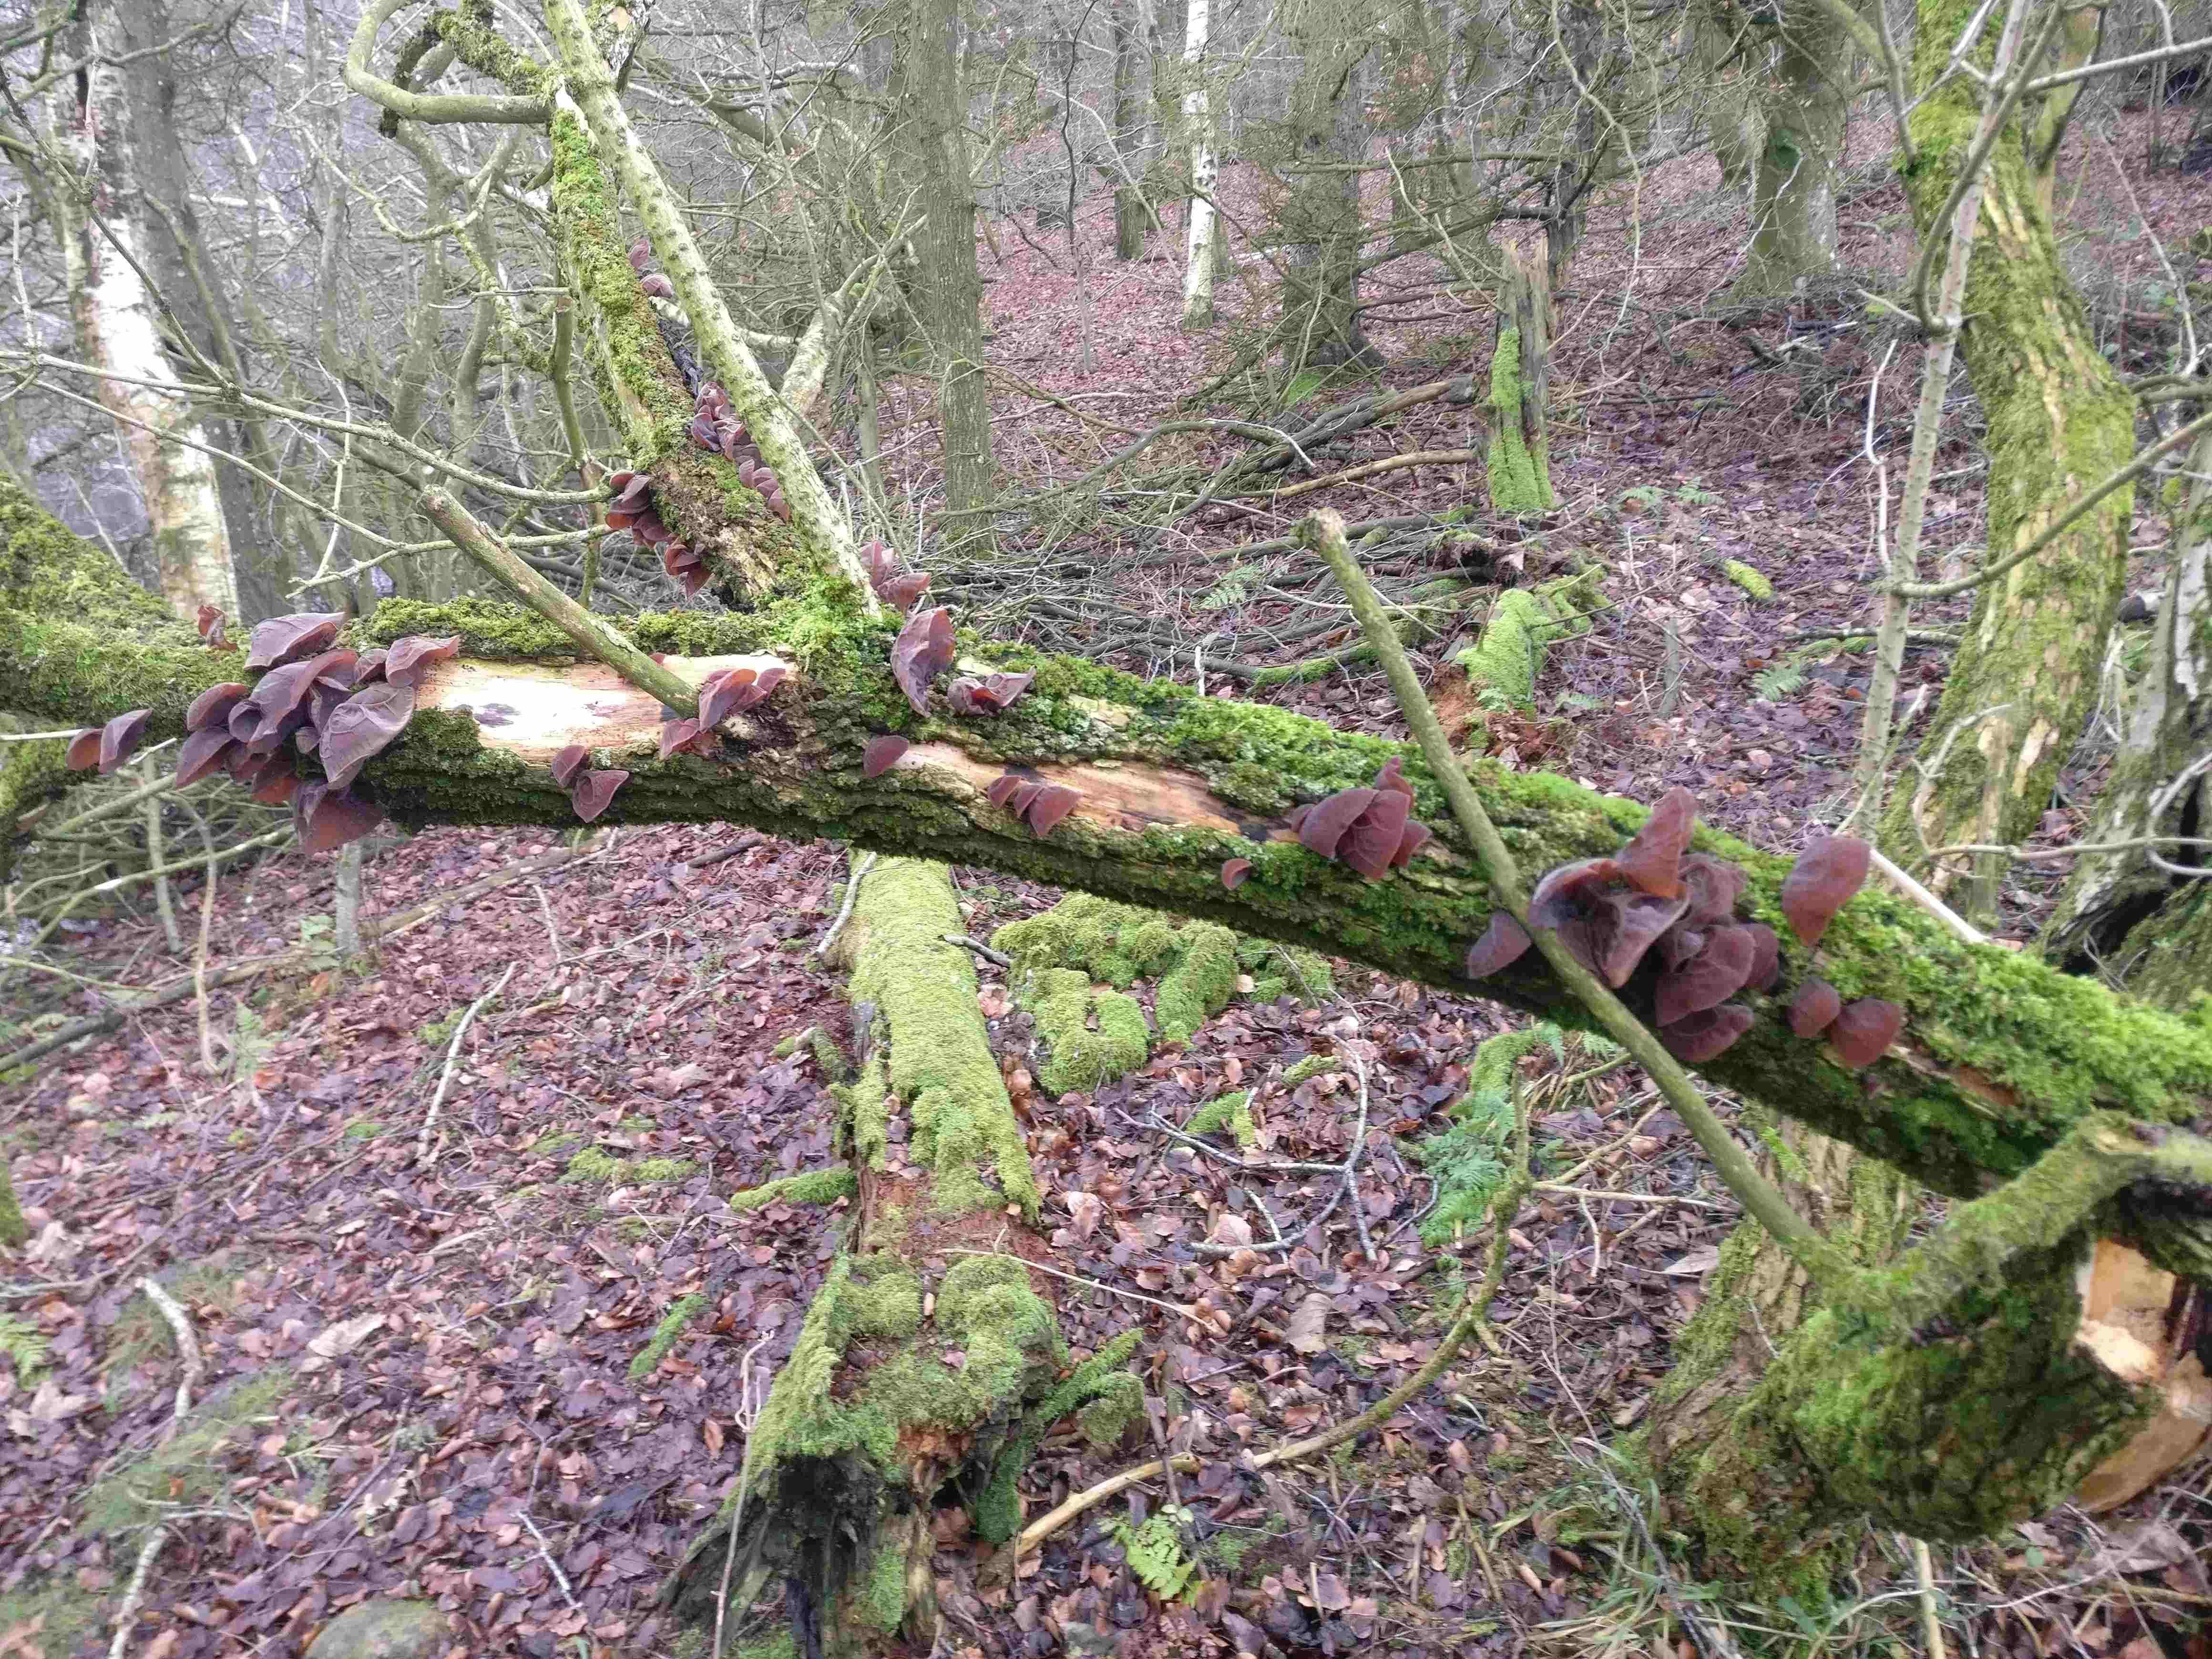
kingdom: Fungi
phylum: Basidiomycota
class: Agaricomycetes
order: Auriculariales
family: Auriculariaceae
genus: Auricularia
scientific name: Auricularia auricula-judae
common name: almindelig judasøre
